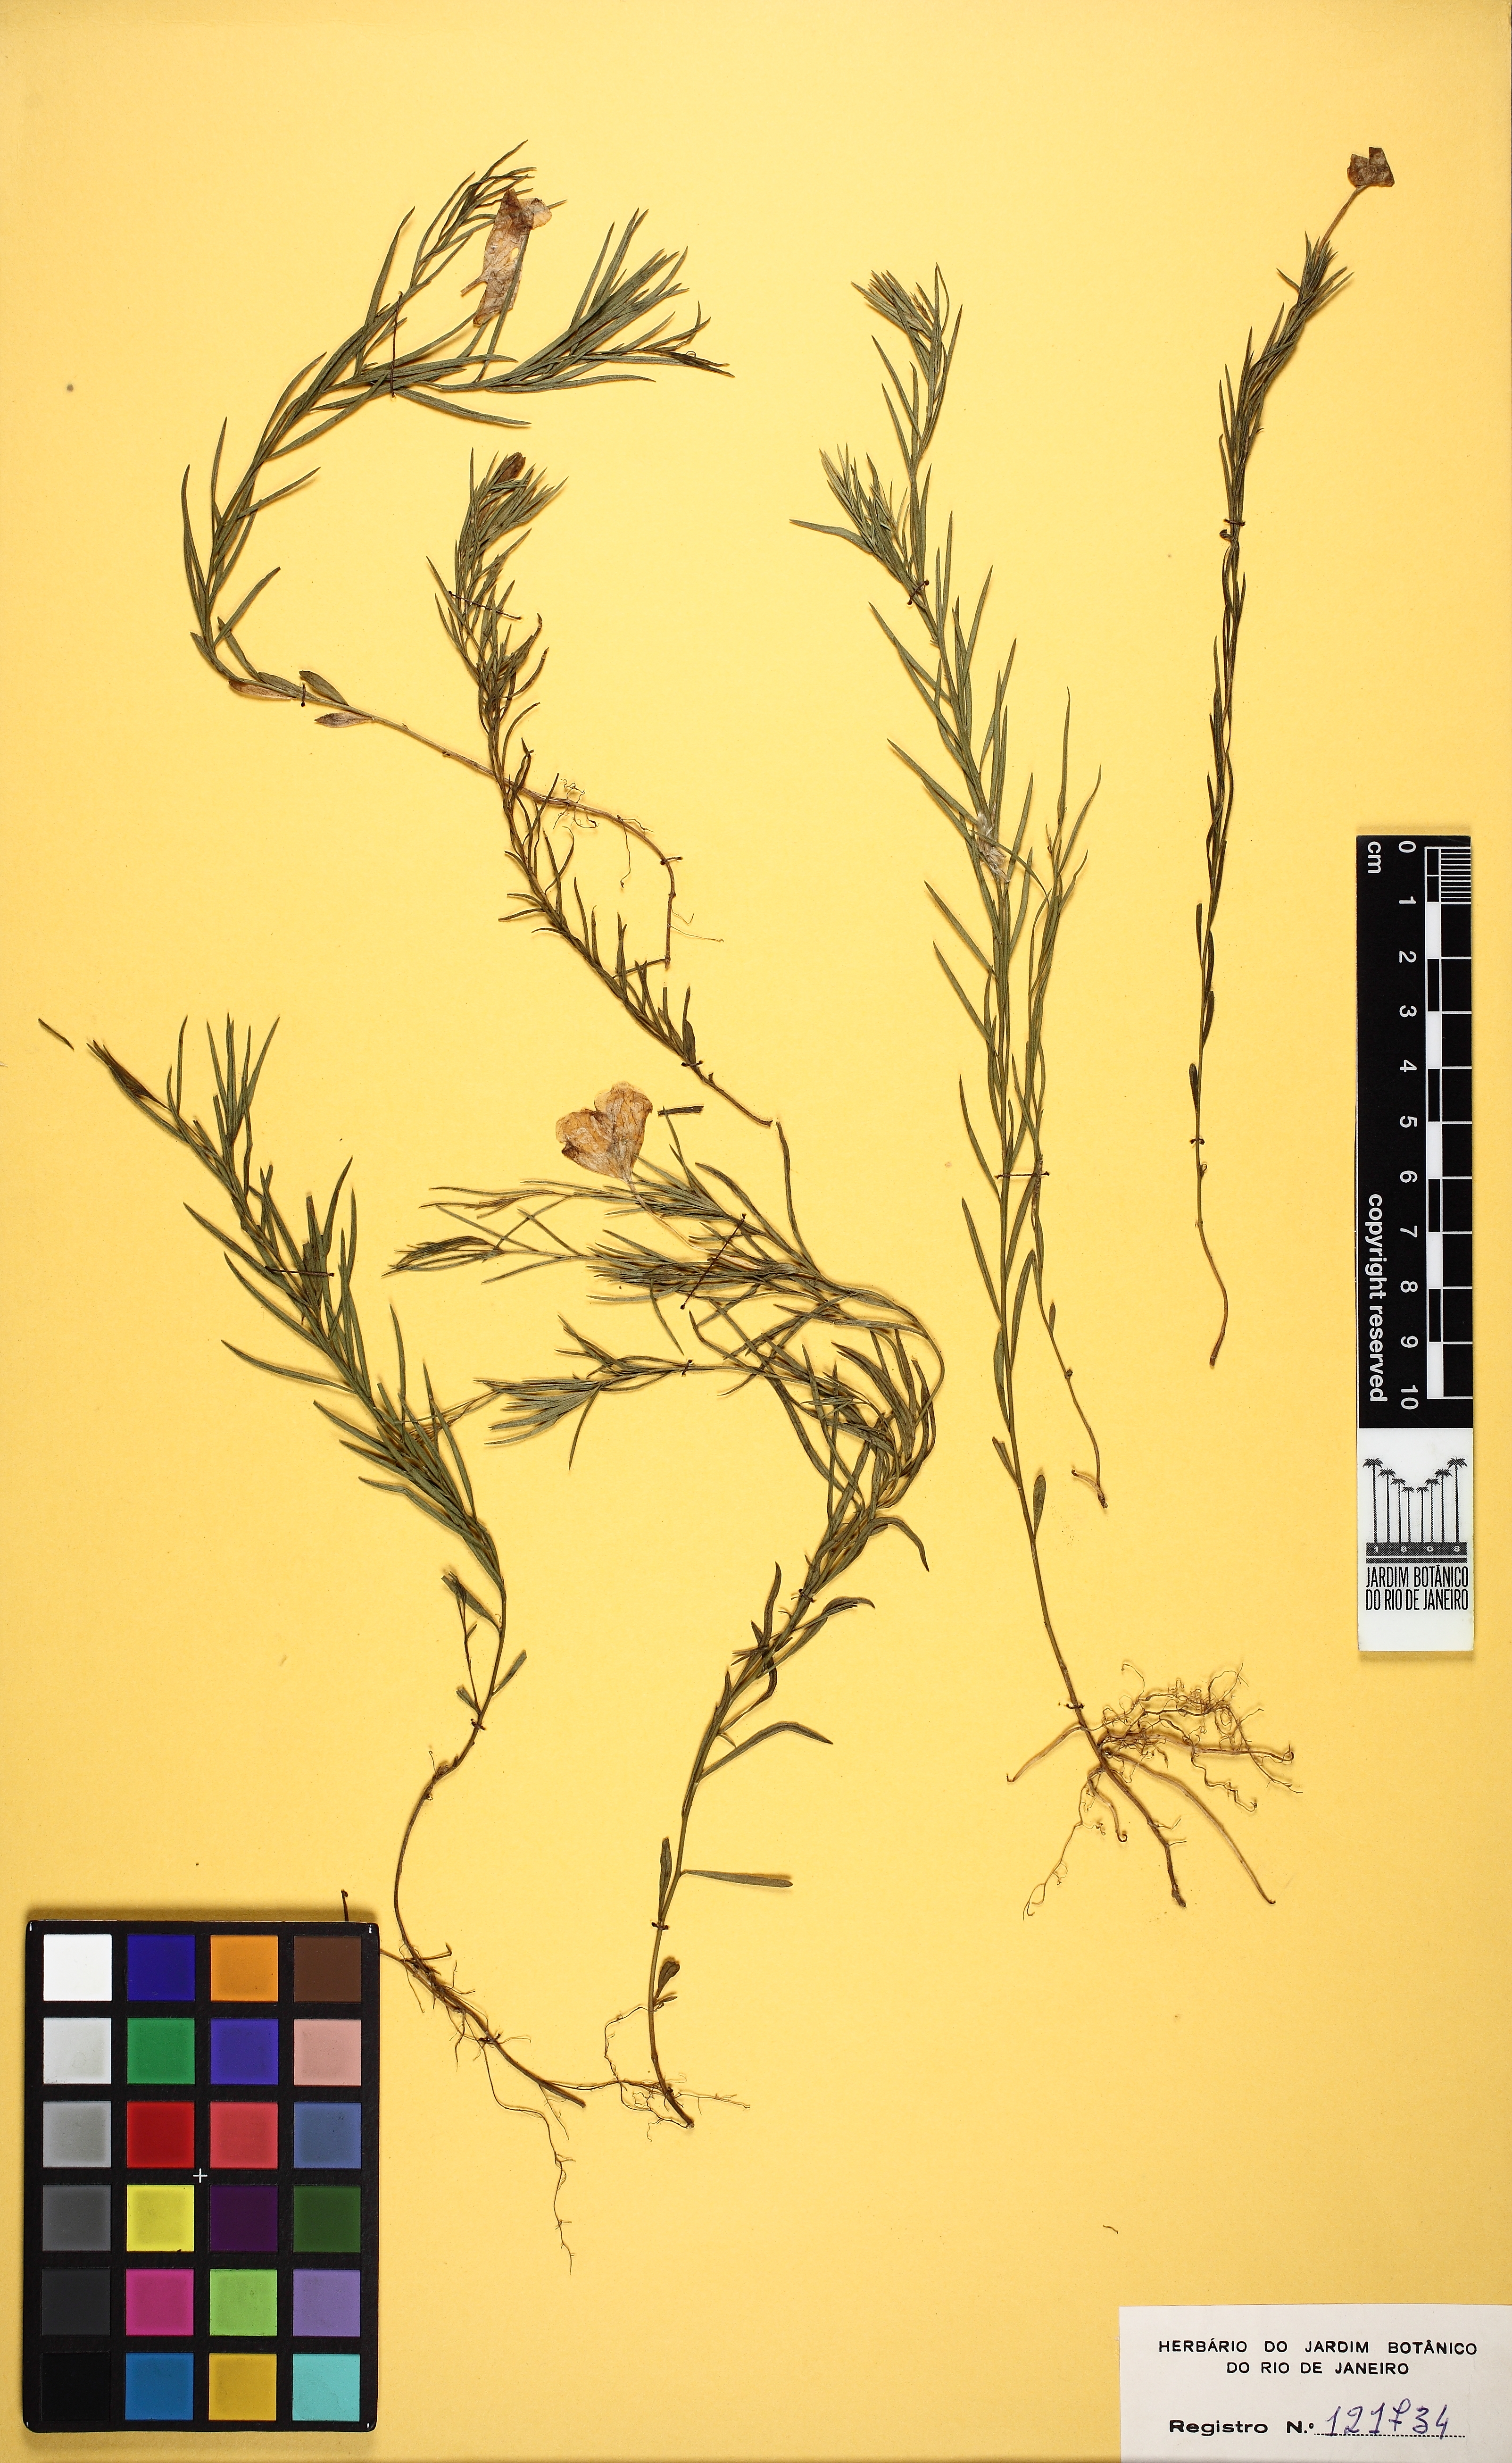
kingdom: Plantae
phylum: Tracheophyta
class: Magnoliopsida
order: Solanales
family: Solanaceae
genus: Nierembergia
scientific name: Nierembergia hatschbachii
